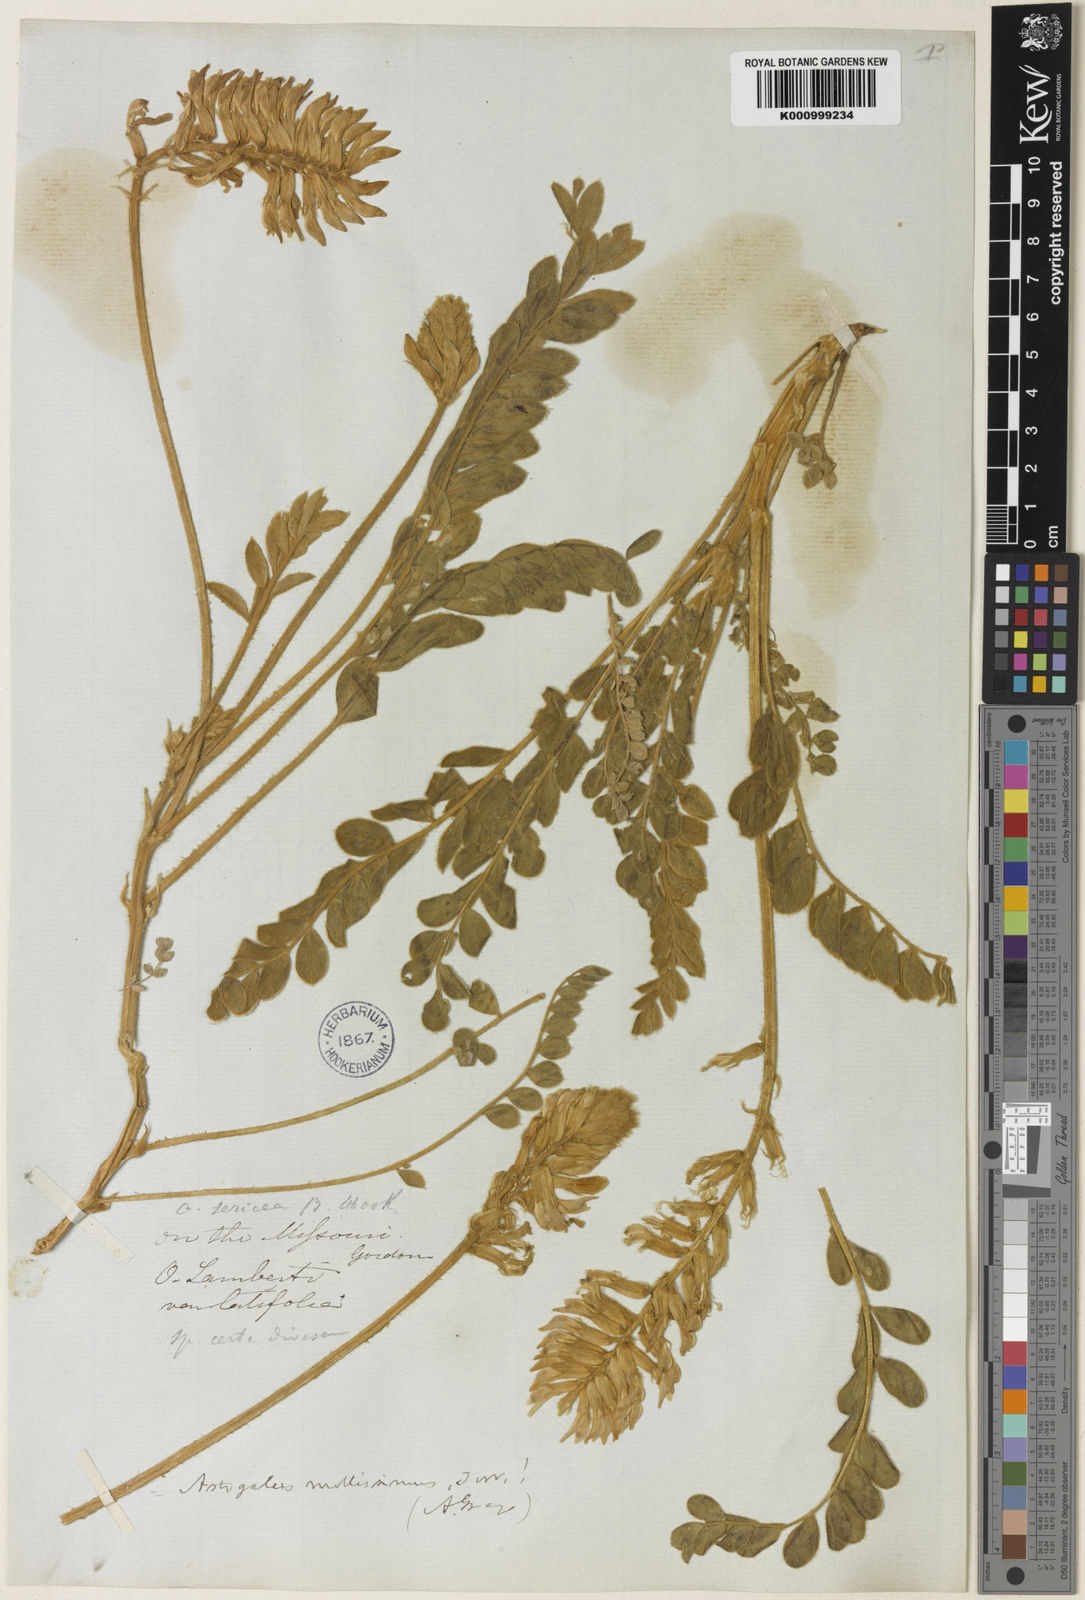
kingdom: Plantae
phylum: Tracheophyta
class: Magnoliopsida
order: Fabales
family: Fabaceae
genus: Astragalus
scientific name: Astragalus mollissimus
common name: Woolly locoweed
